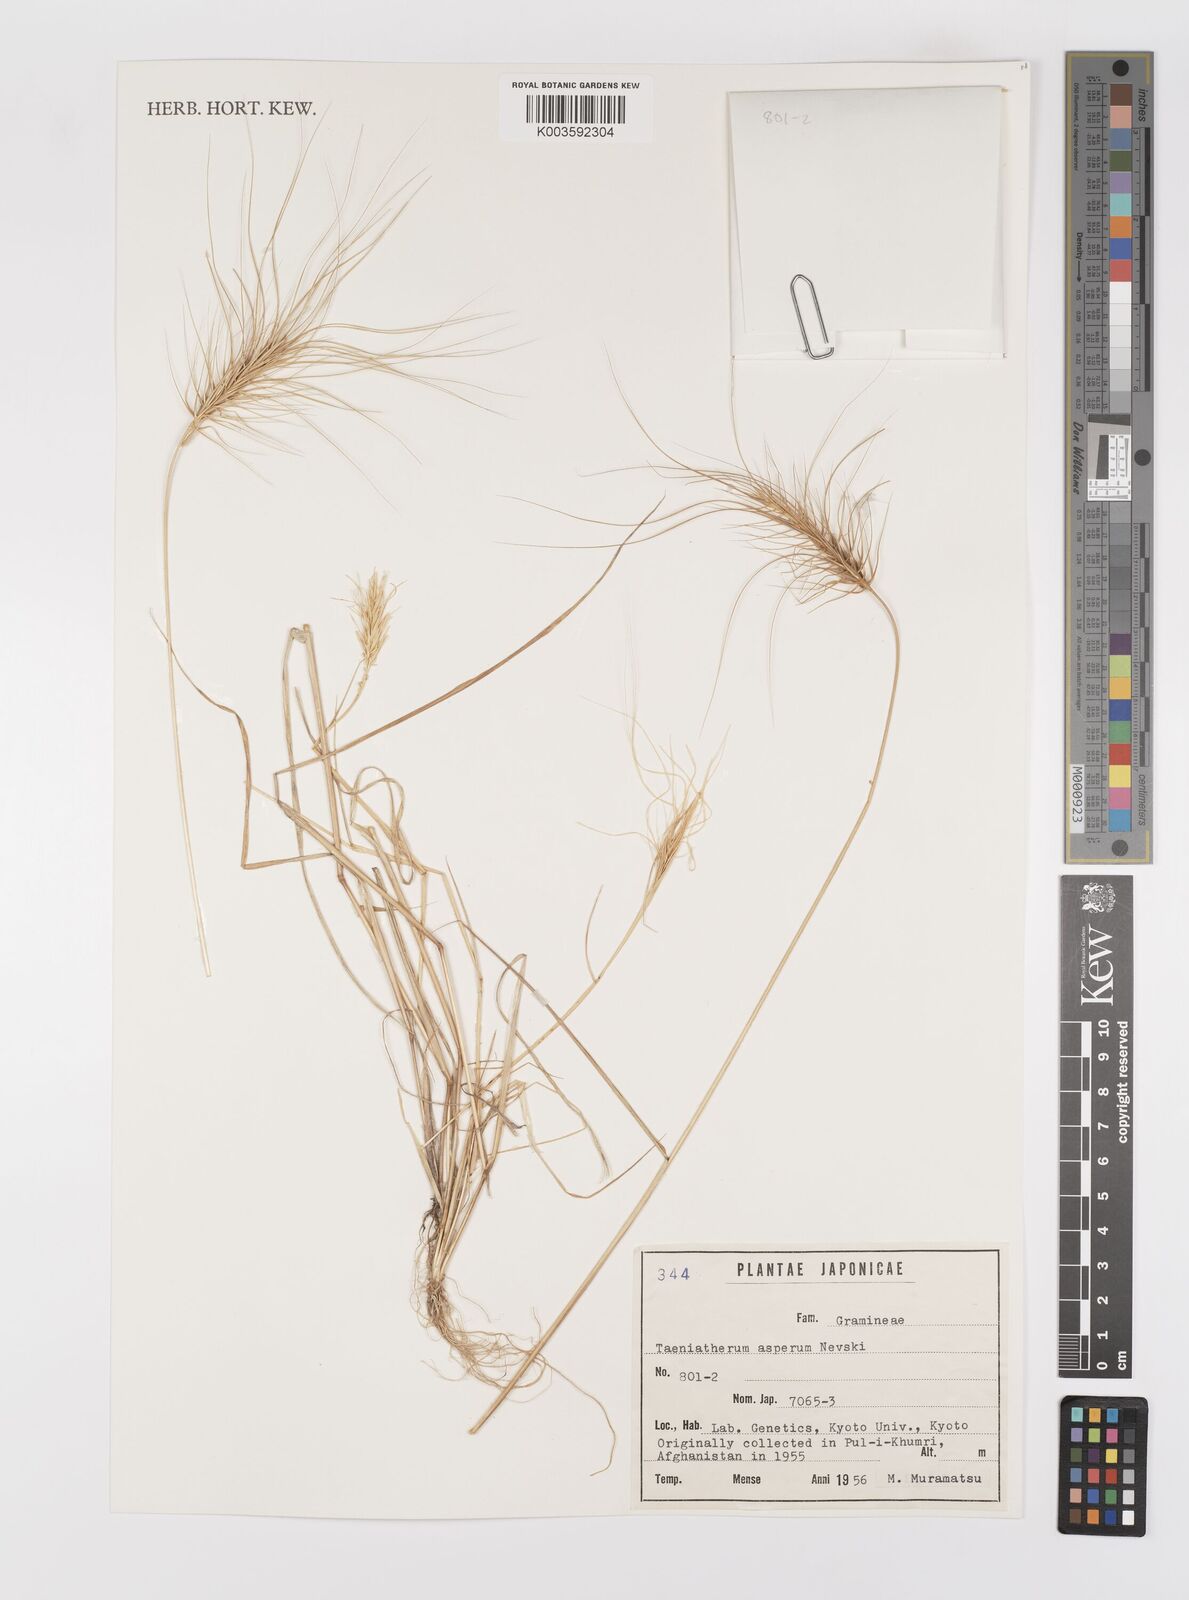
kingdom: Plantae
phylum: Tracheophyta
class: Liliopsida
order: Poales
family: Poaceae
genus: Taeniatherum
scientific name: Taeniatherum caput-medusae
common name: Medusahead
